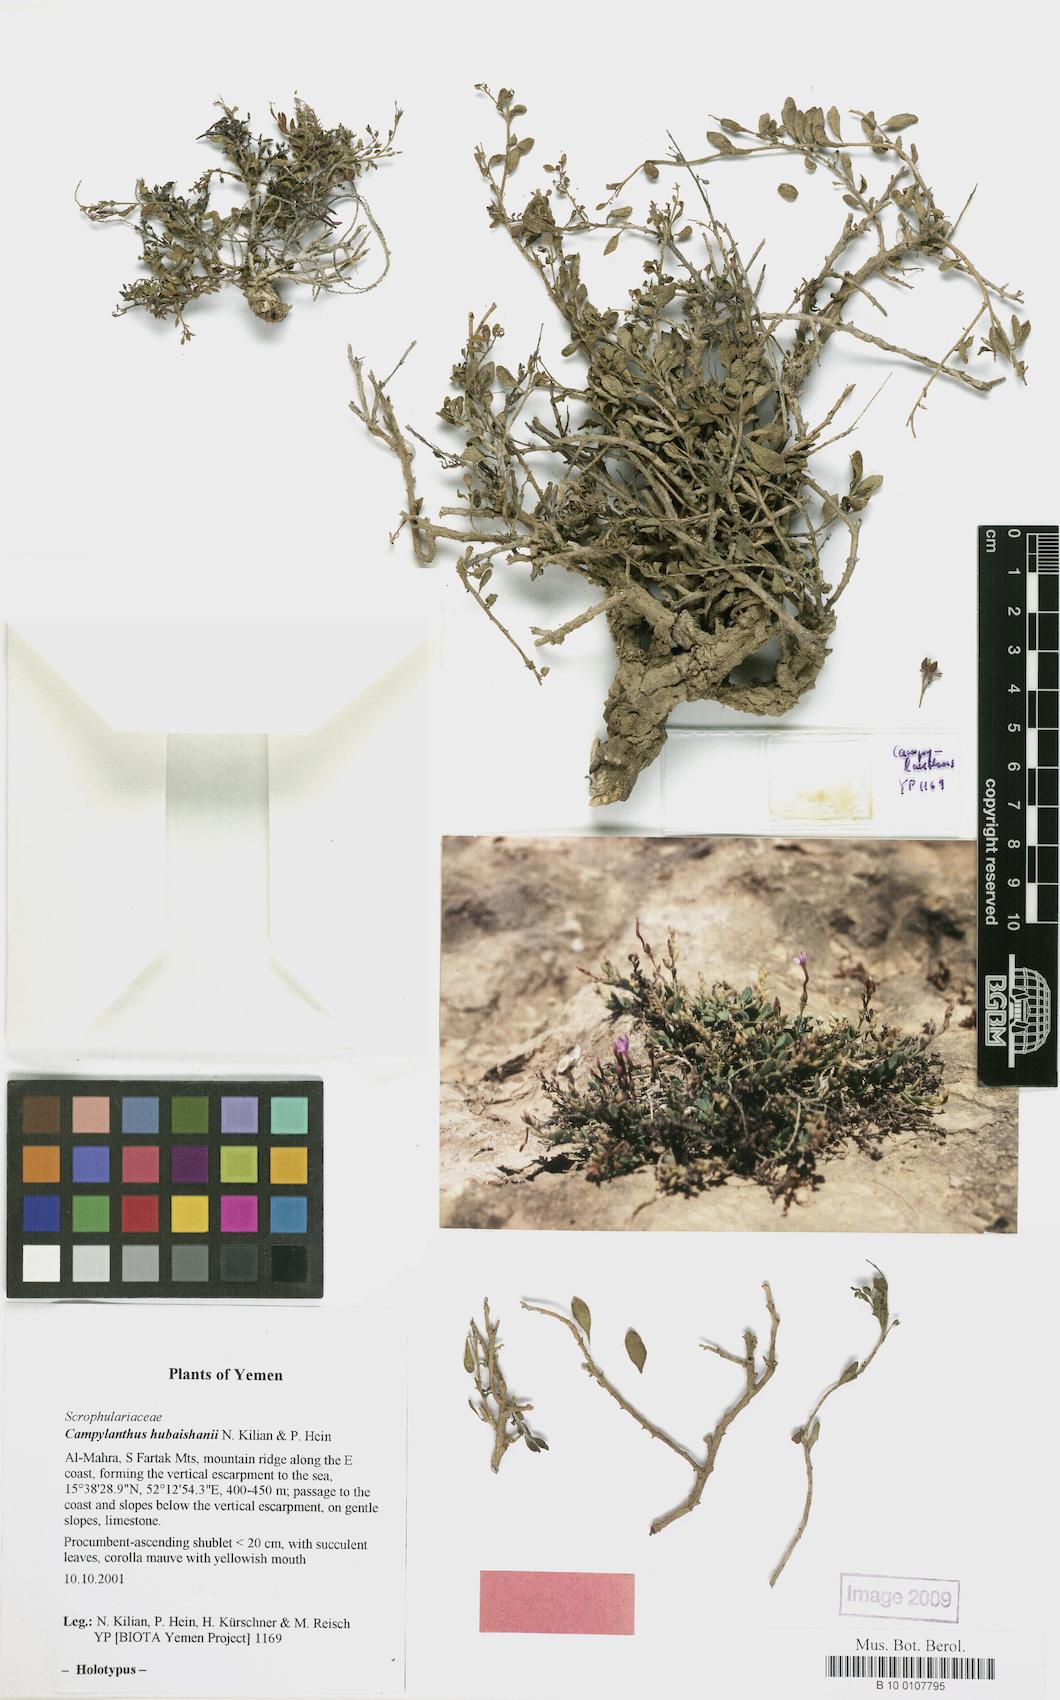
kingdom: Plantae
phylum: Tracheophyta
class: Magnoliopsida
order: Lamiales
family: Plantaginaceae
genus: Campylanthus
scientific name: Campylanthus hubaishanii
